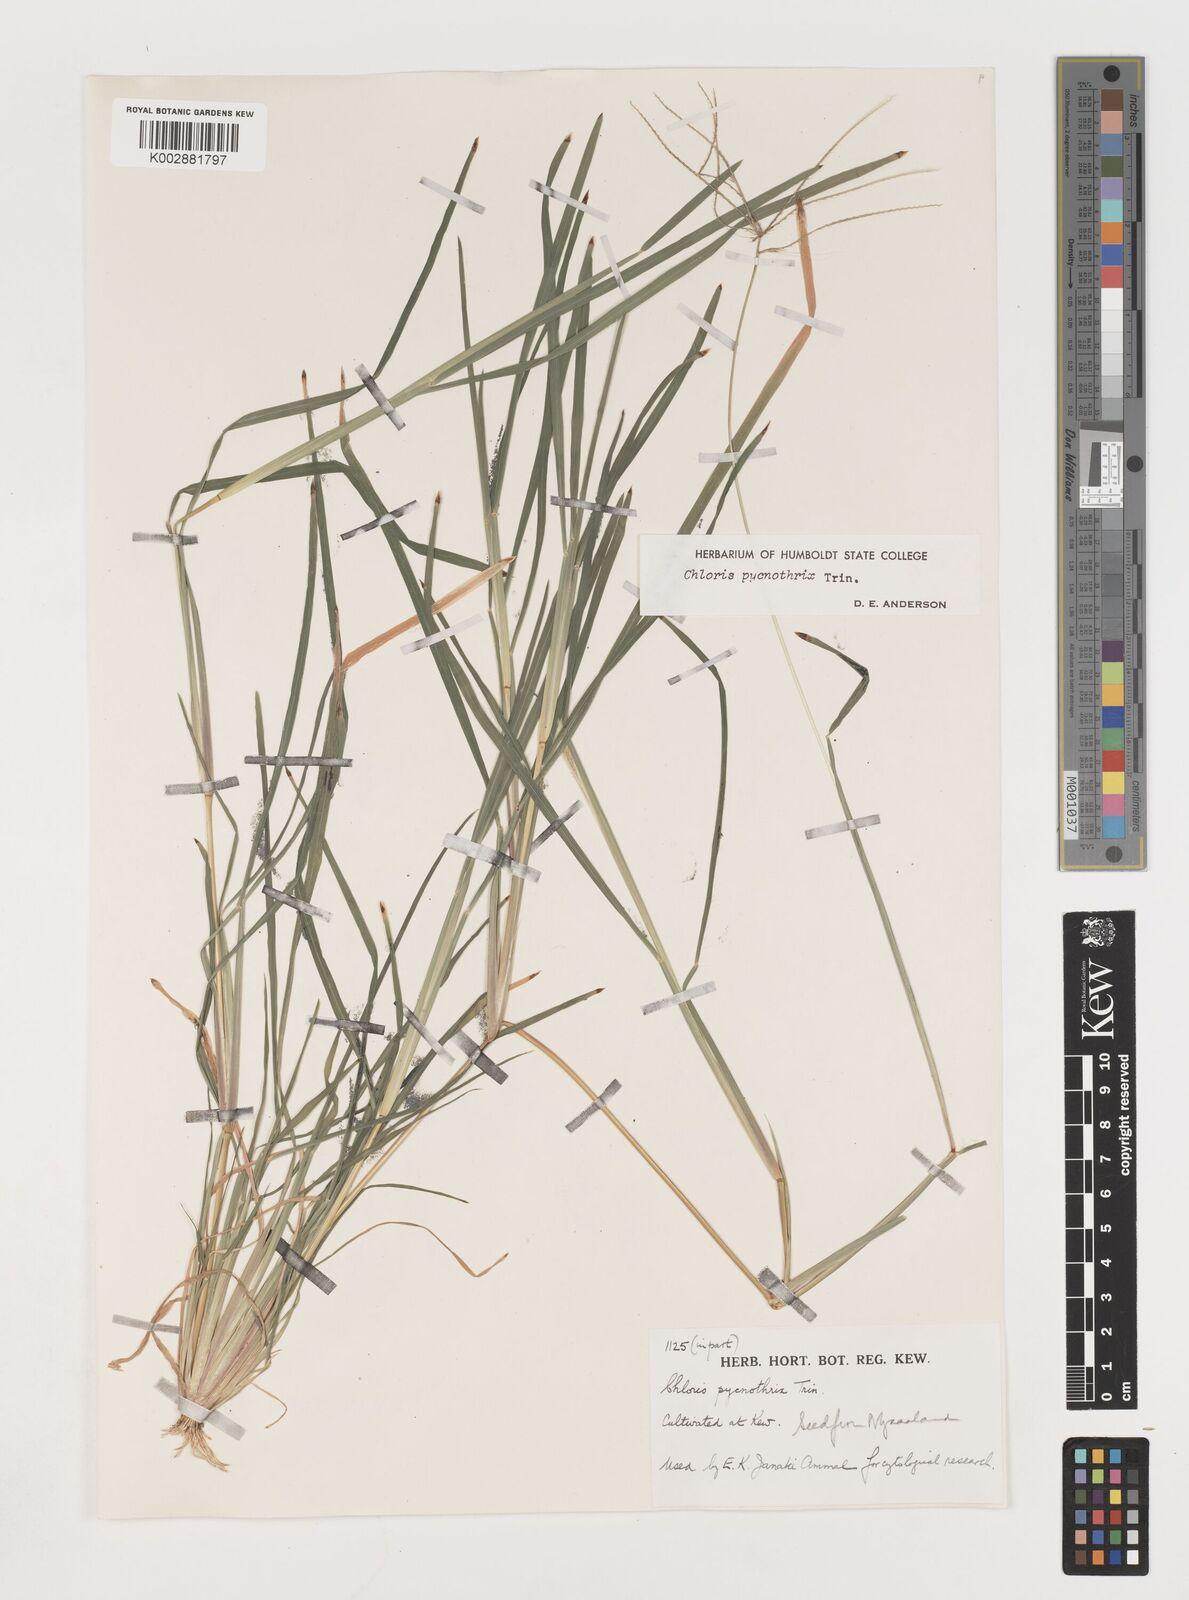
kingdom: Plantae
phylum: Tracheophyta
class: Liliopsida
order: Poales
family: Poaceae
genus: Chloris
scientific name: Chloris pycnothrix
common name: Spiderweb chloris
